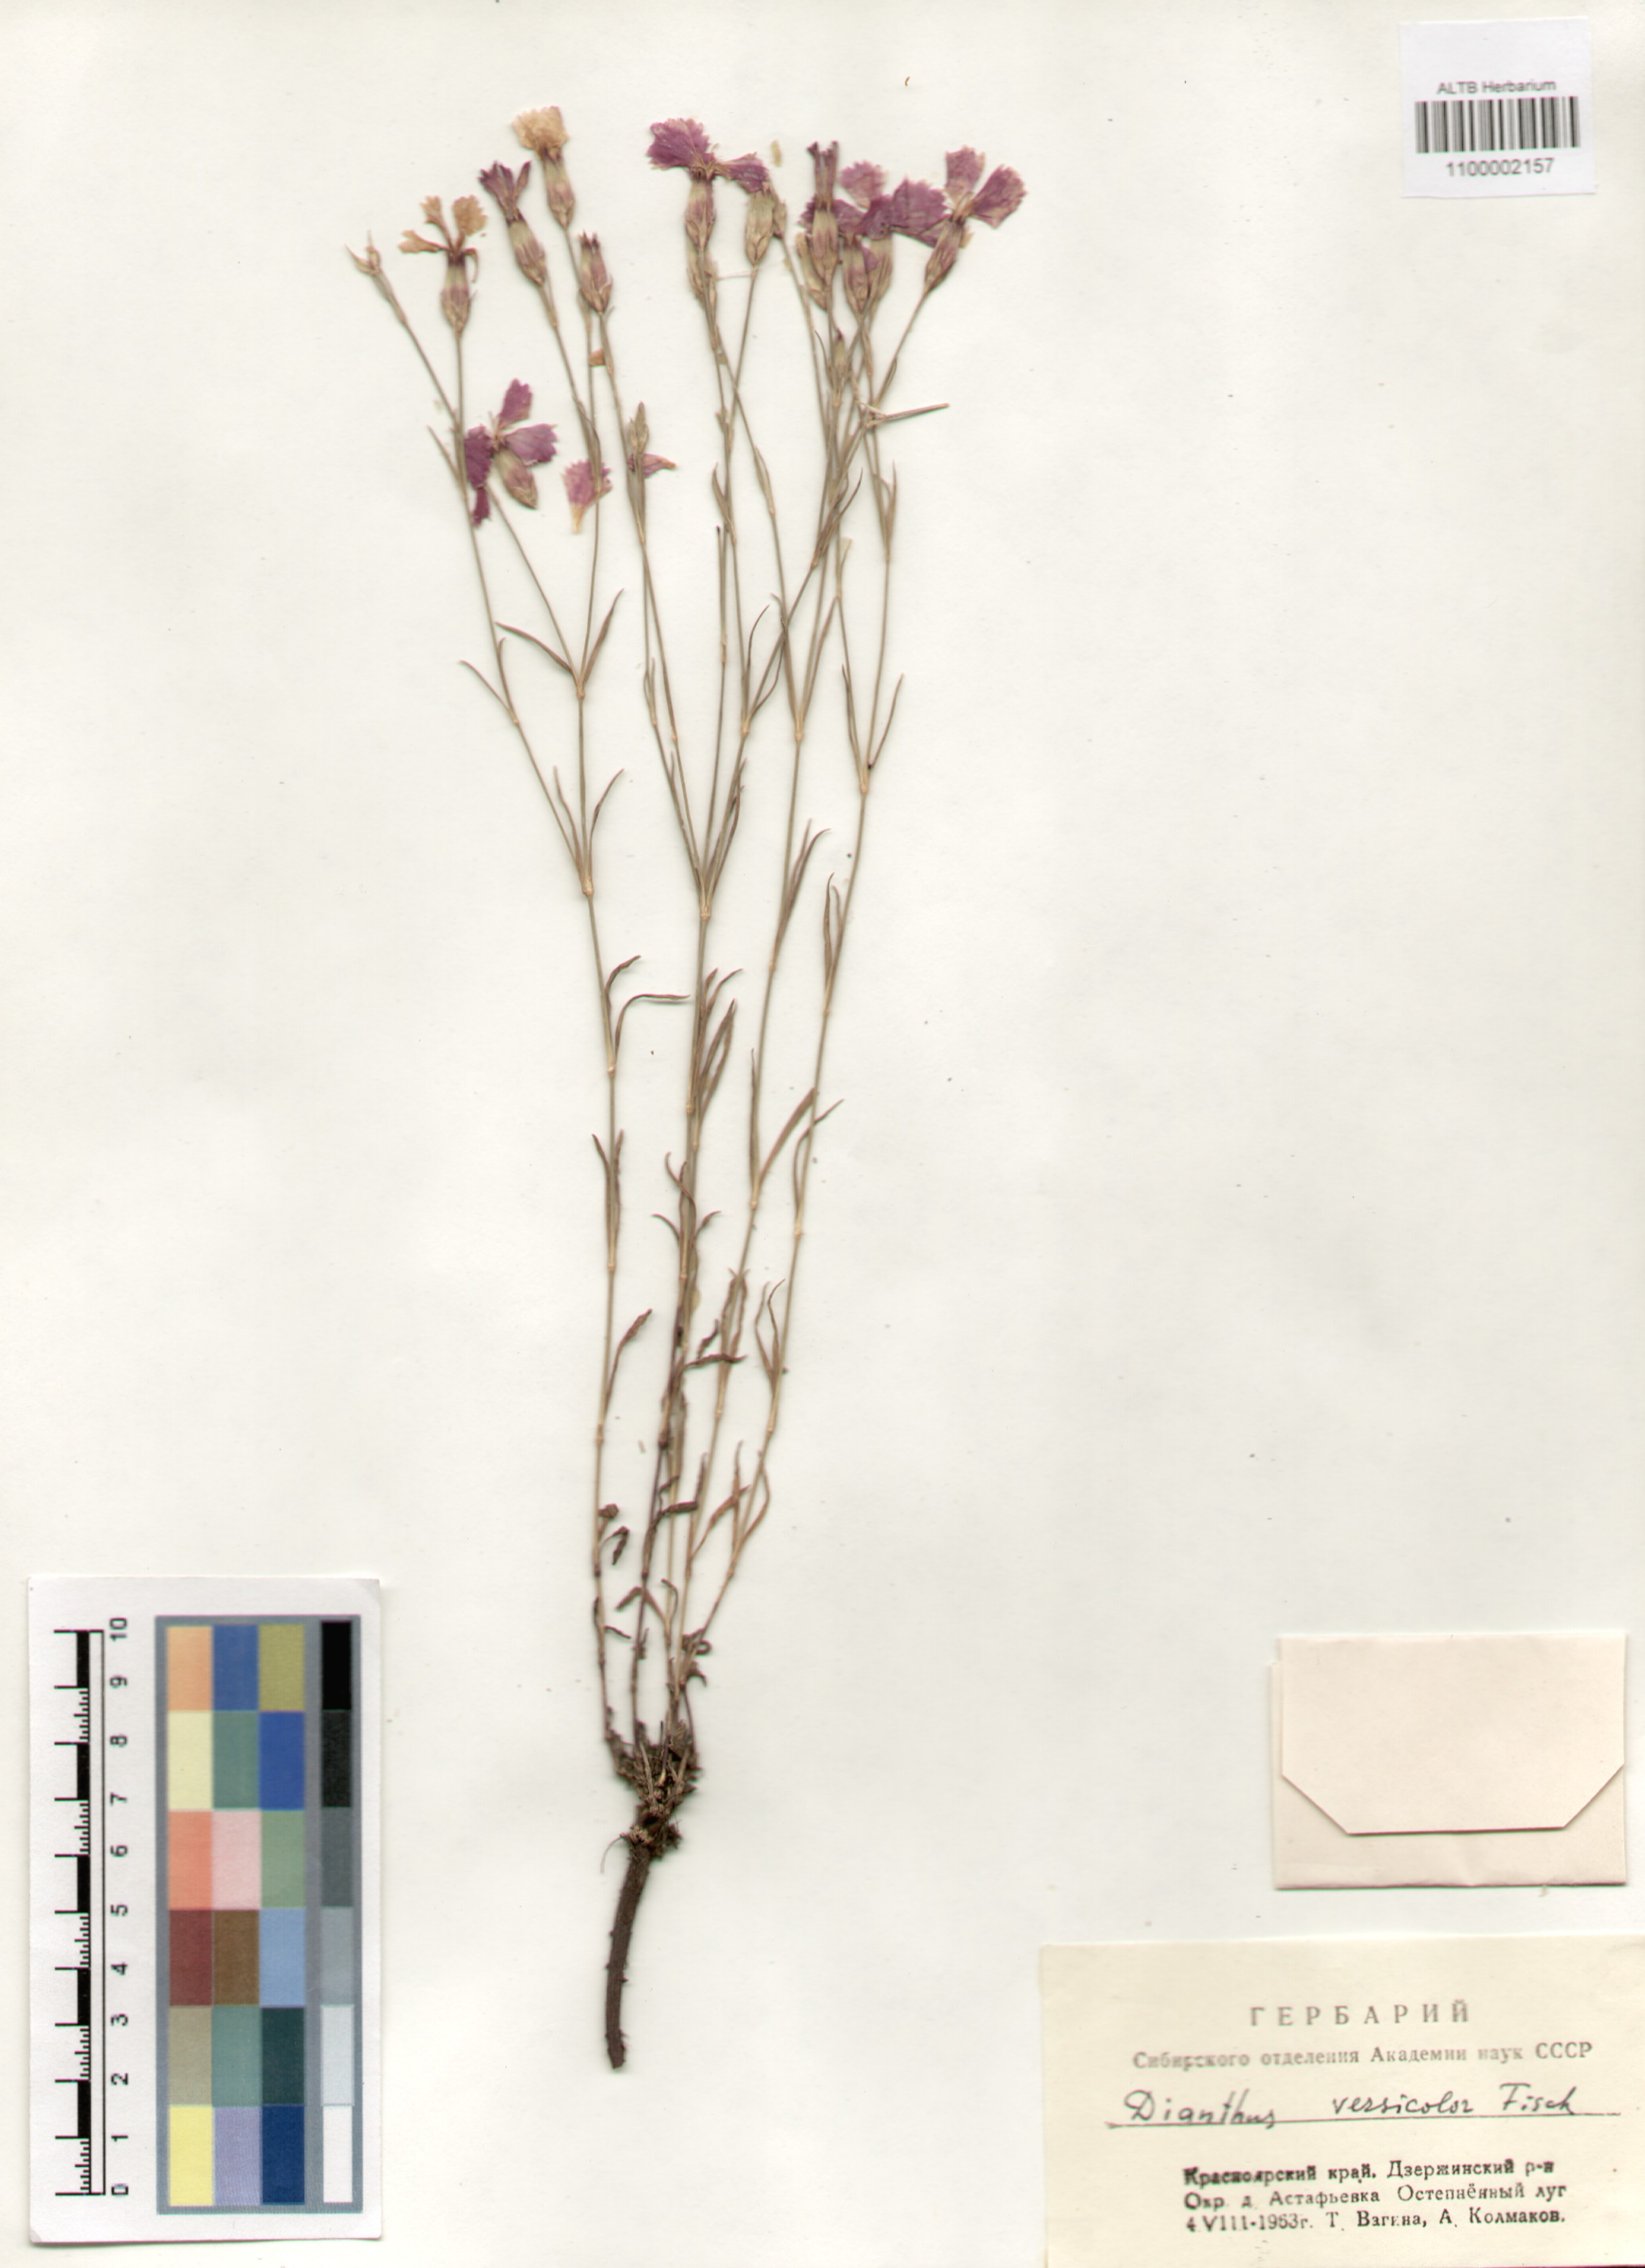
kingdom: Plantae
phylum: Tracheophyta
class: Magnoliopsida
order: Caryophyllales
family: Caryophyllaceae
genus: Dianthus
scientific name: Dianthus chinensis
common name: Rainbow pink
